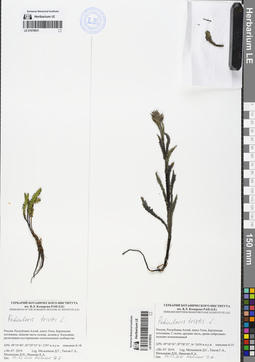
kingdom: Plantae
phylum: Tracheophyta
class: Magnoliopsida
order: Lamiales
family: Orobanchaceae
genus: Pedicularis
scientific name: Pedicularis tristis
